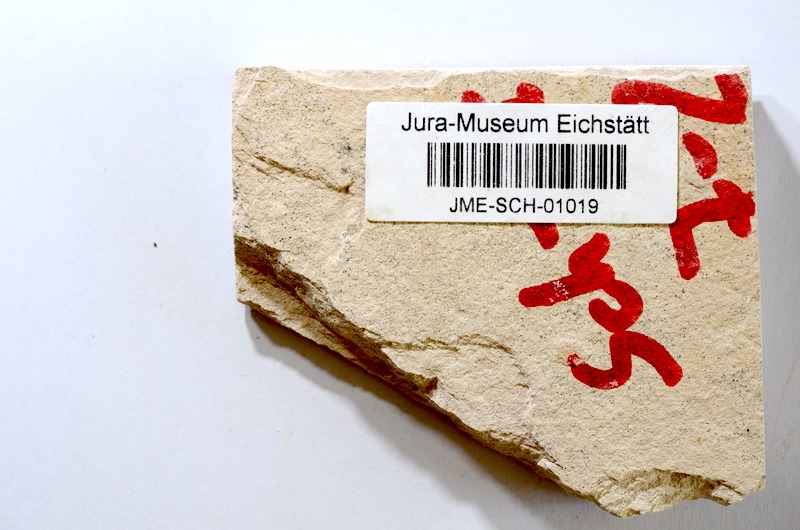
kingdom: Animalia
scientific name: Animalia
